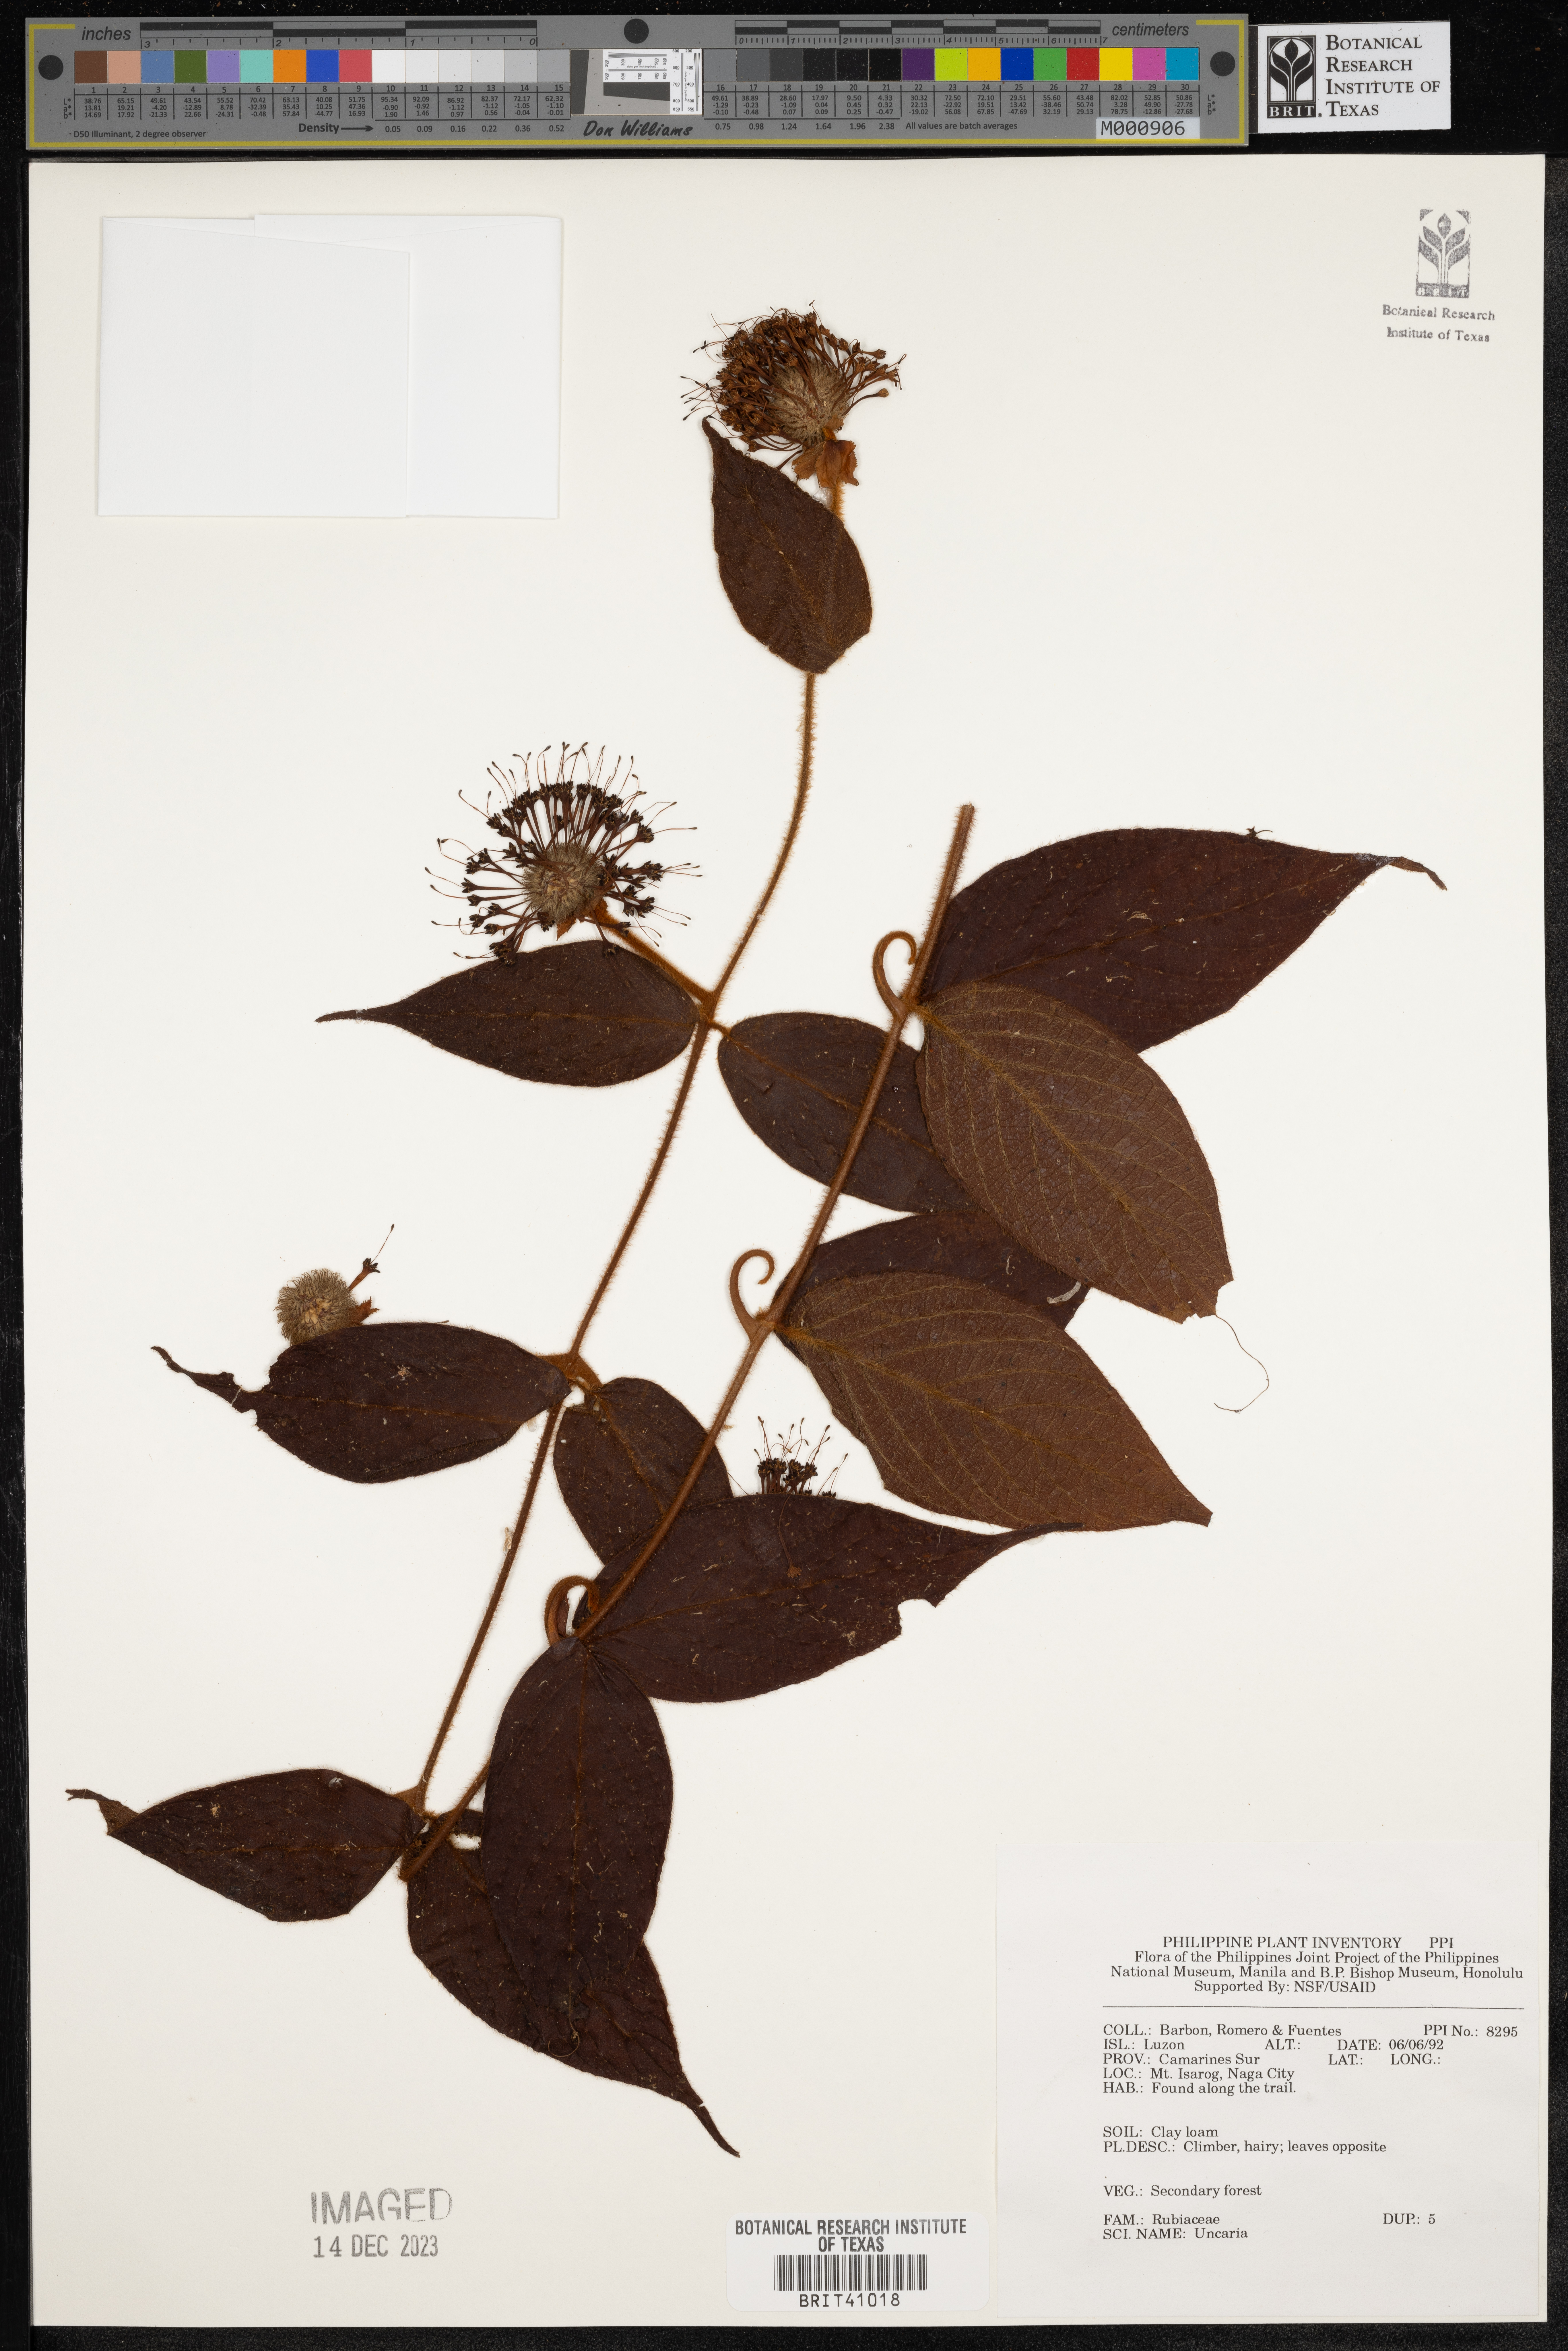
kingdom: Plantae
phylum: Tracheophyta
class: Magnoliopsida
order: Gentianales
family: Rubiaceae
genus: Uncaria
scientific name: Uncaria
